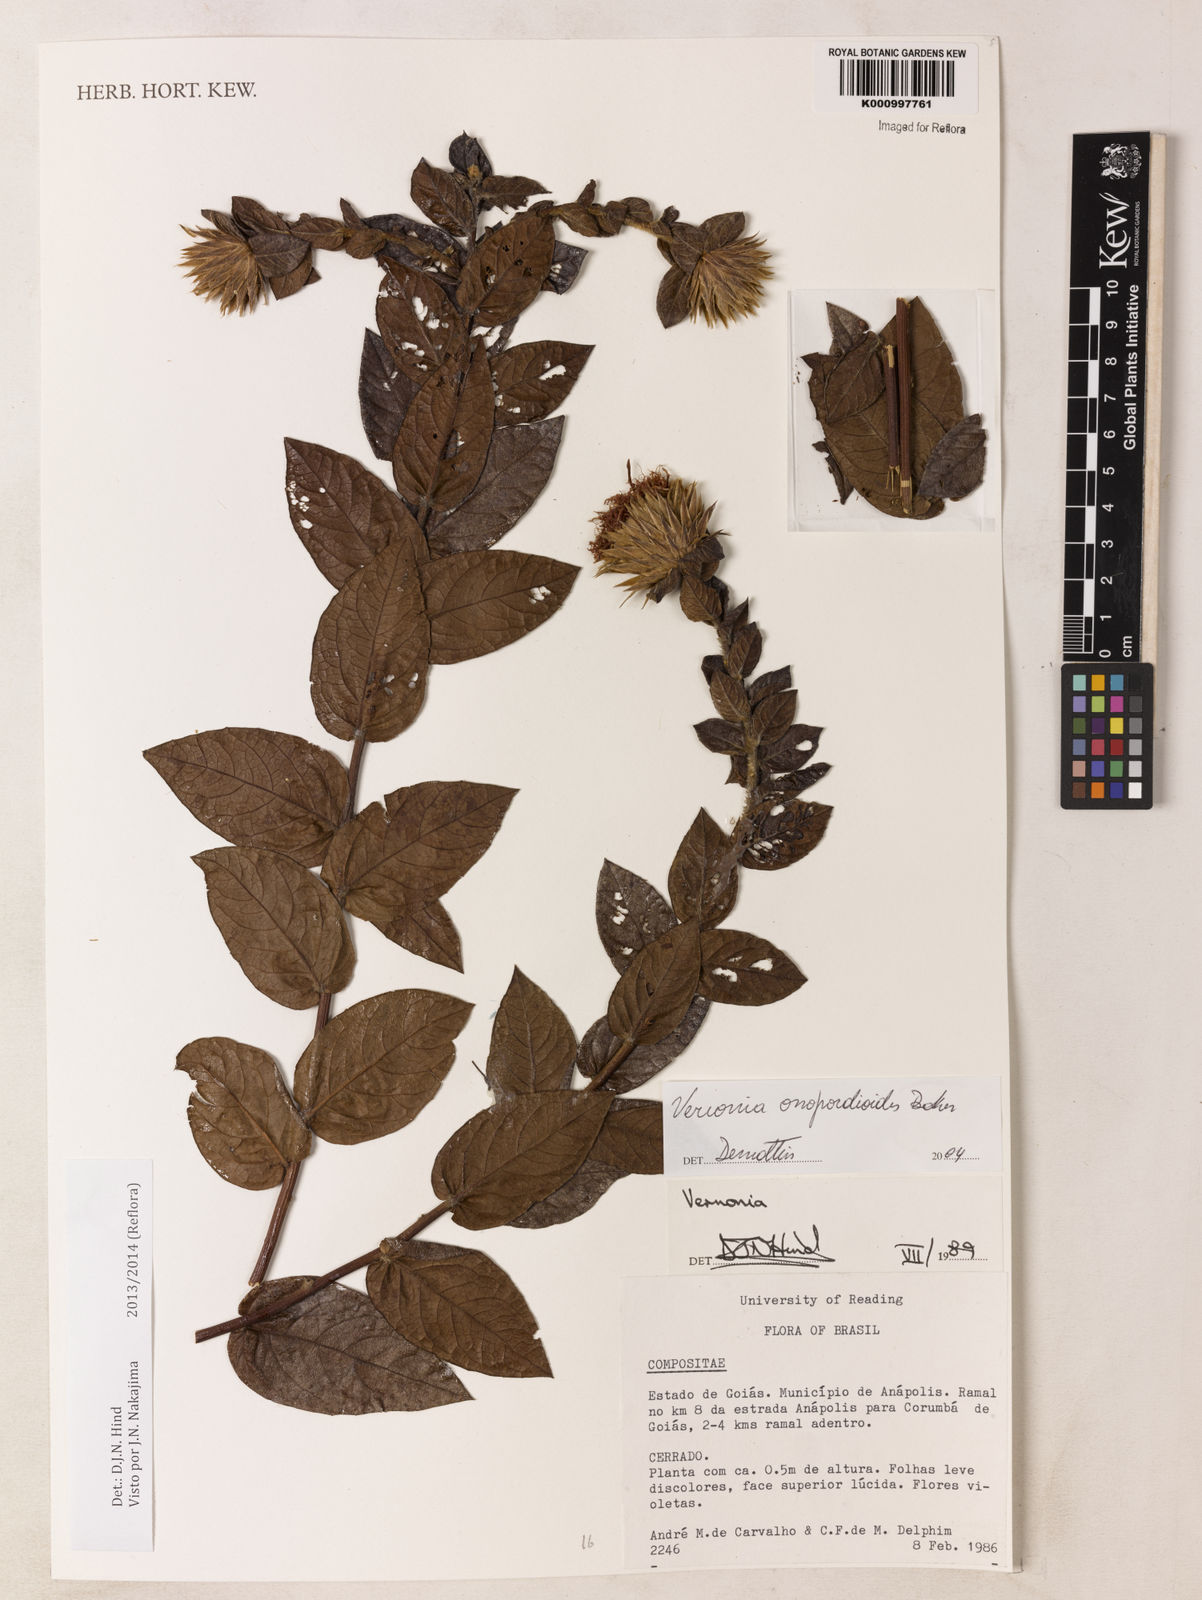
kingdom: Plantae
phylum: Tracheophyta
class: Magnoliopsida
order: Asterales
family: Asteraceae
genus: Lessingianthus
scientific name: Lessingianthus onopordioides
